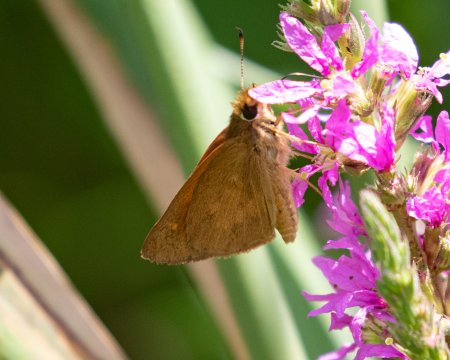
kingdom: Animalia
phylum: Arthropoda
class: Insecta
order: Lepidoptera
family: Hesperiidae
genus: Poanes
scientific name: Poanes viator
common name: Broad-winged Skipper
